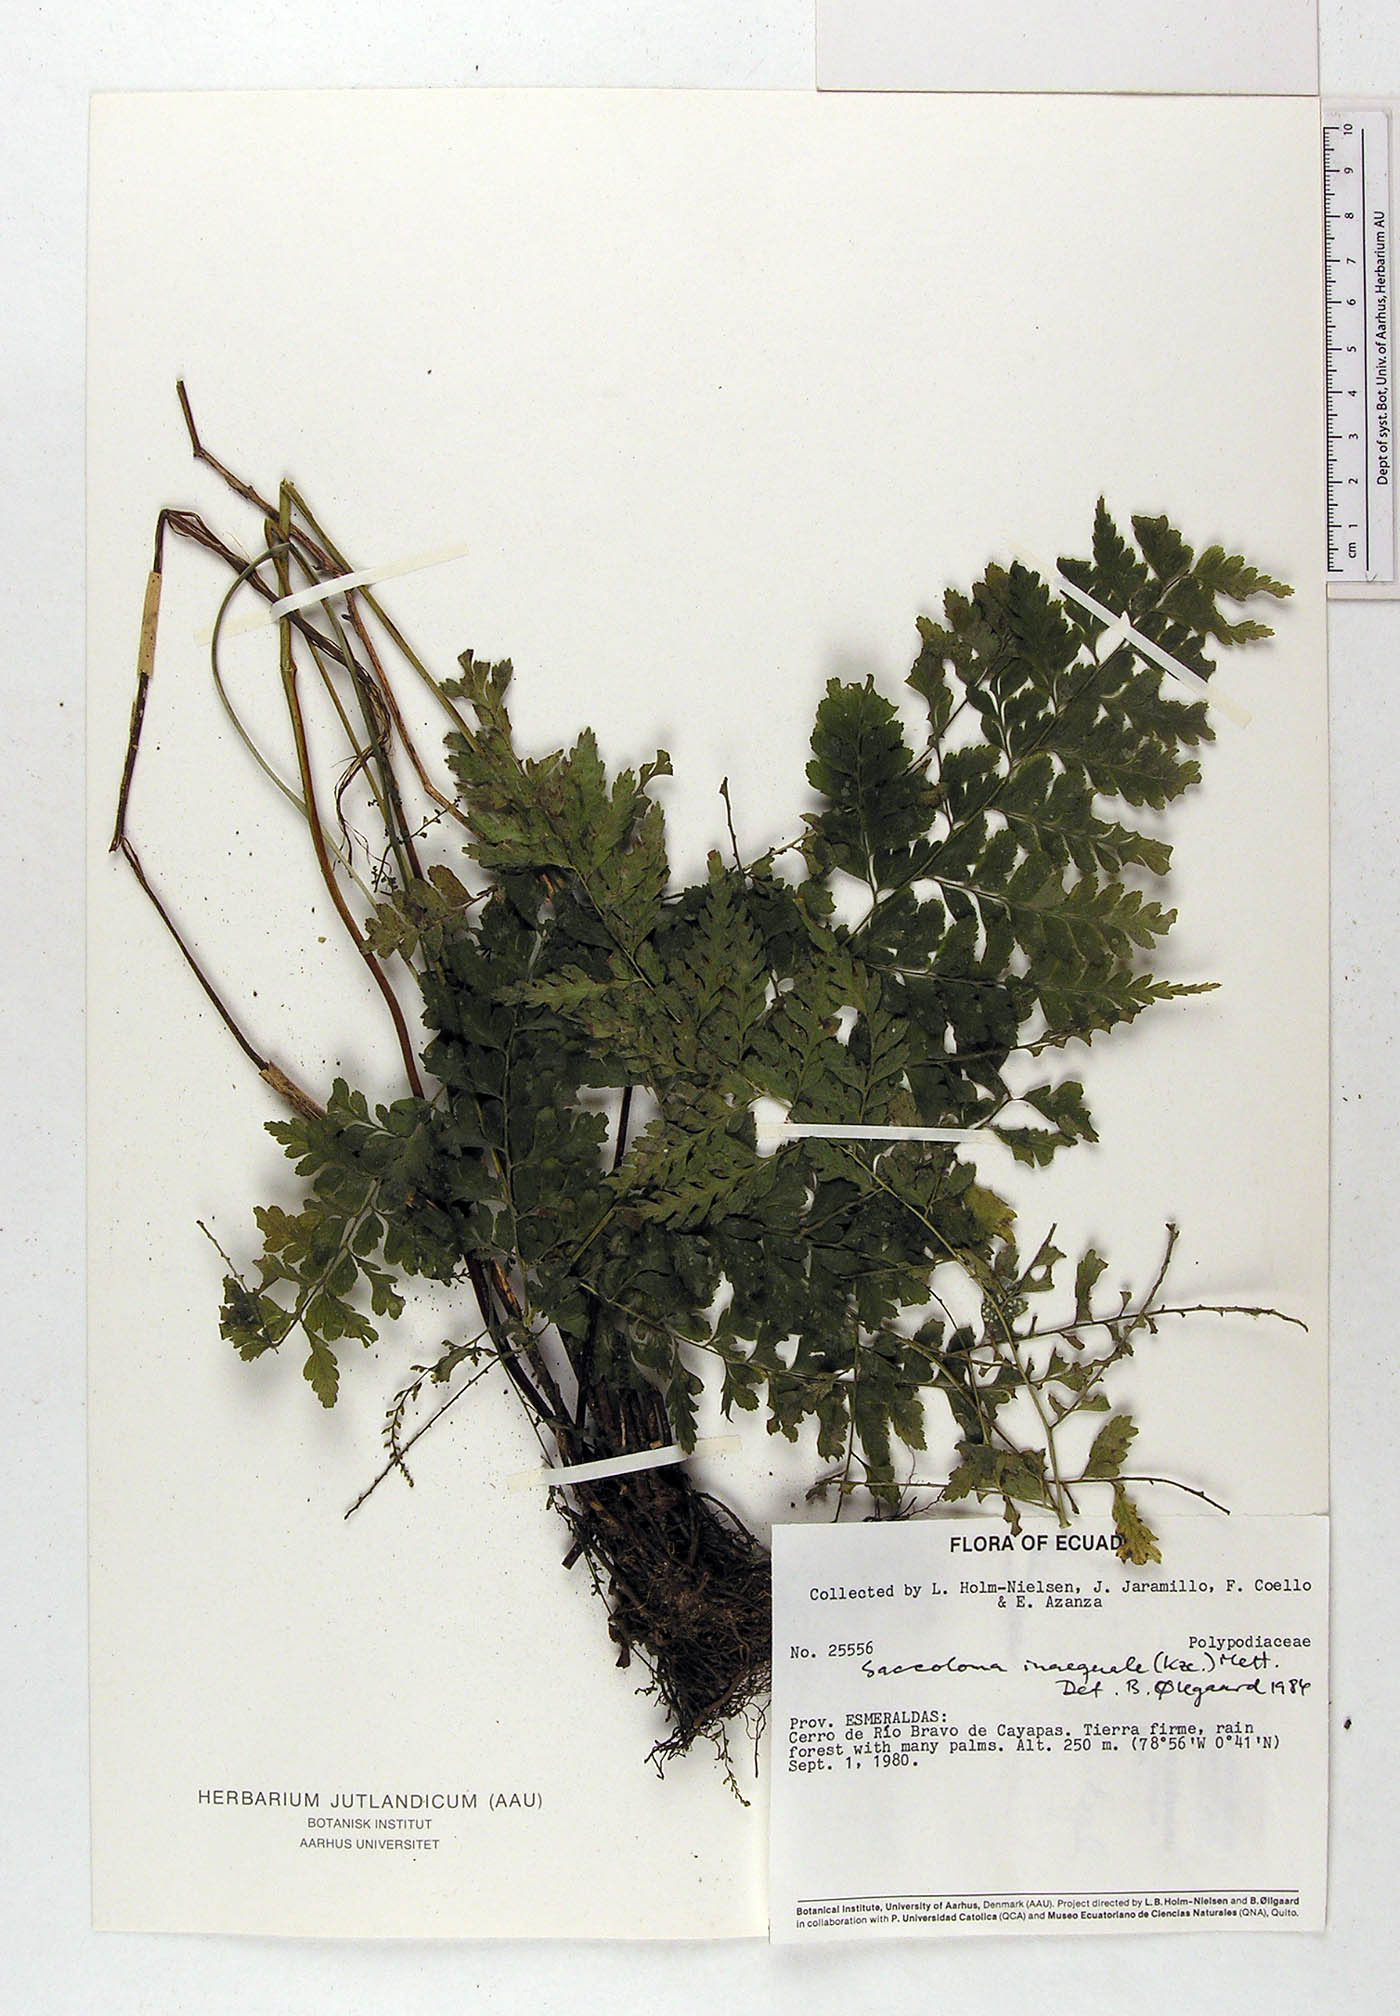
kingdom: Plantae
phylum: Tracheophyta
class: Polypodiopsida
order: Polypodiales
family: Saccolomataceae
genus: Saccoloma
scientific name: Saccoloma inaequale
